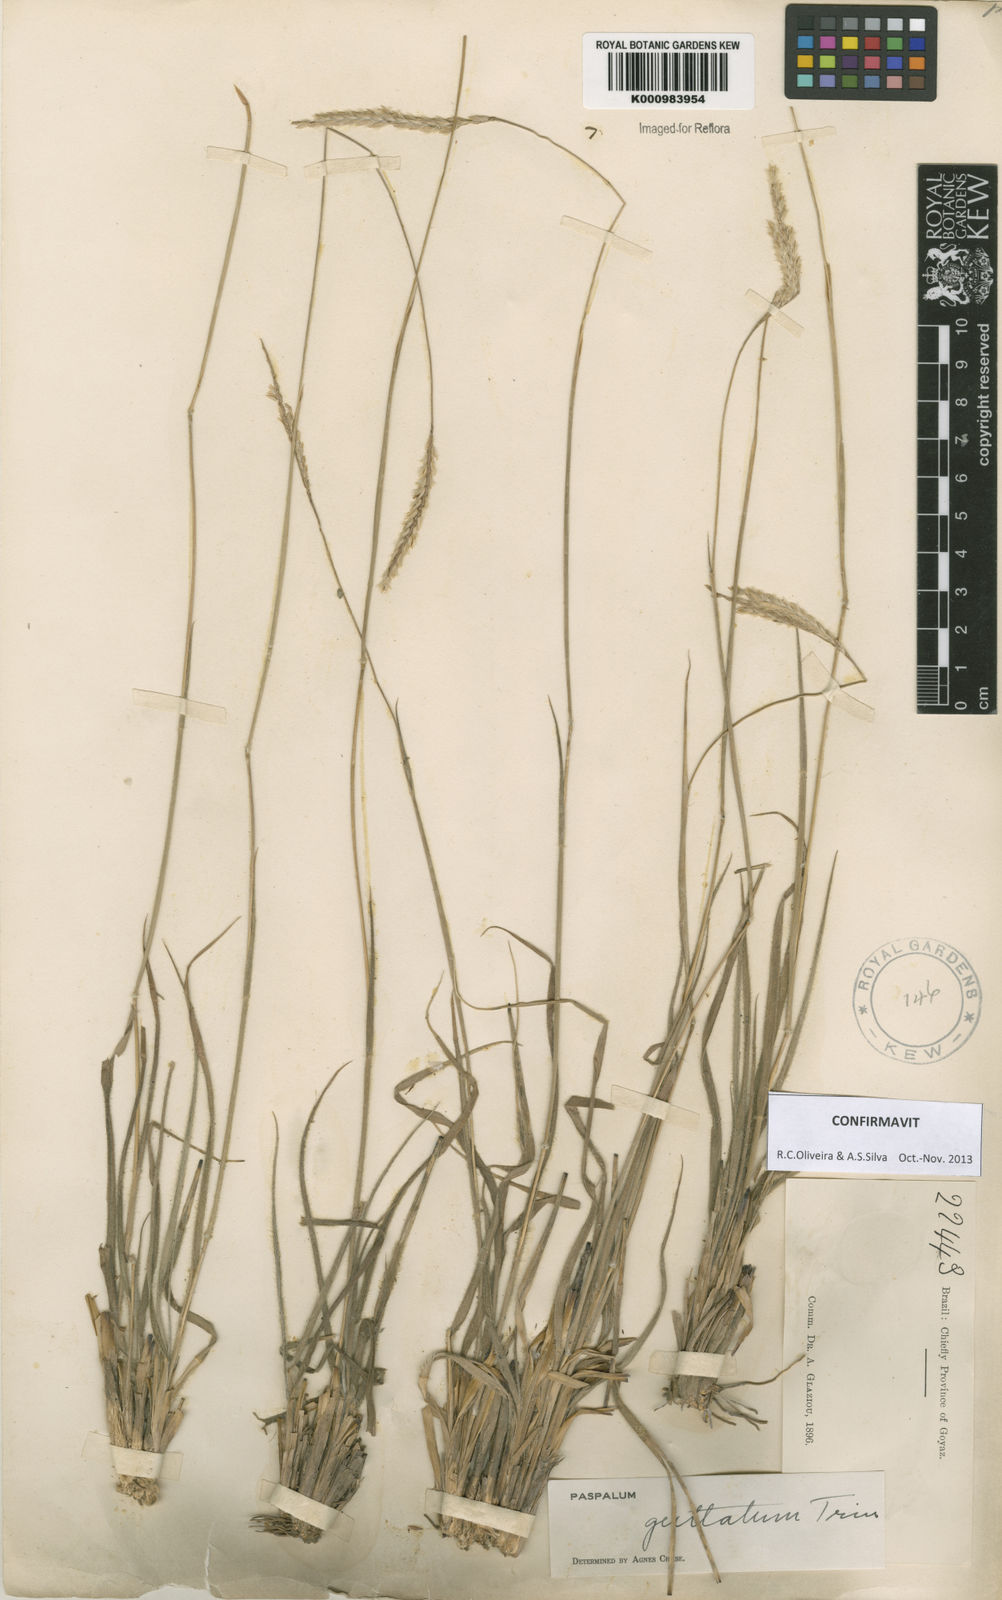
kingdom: Plantae
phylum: Tracheophyta
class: Liliopsida
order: Poales
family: Poaceae
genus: Paspalum
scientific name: Paspalum guttatum
